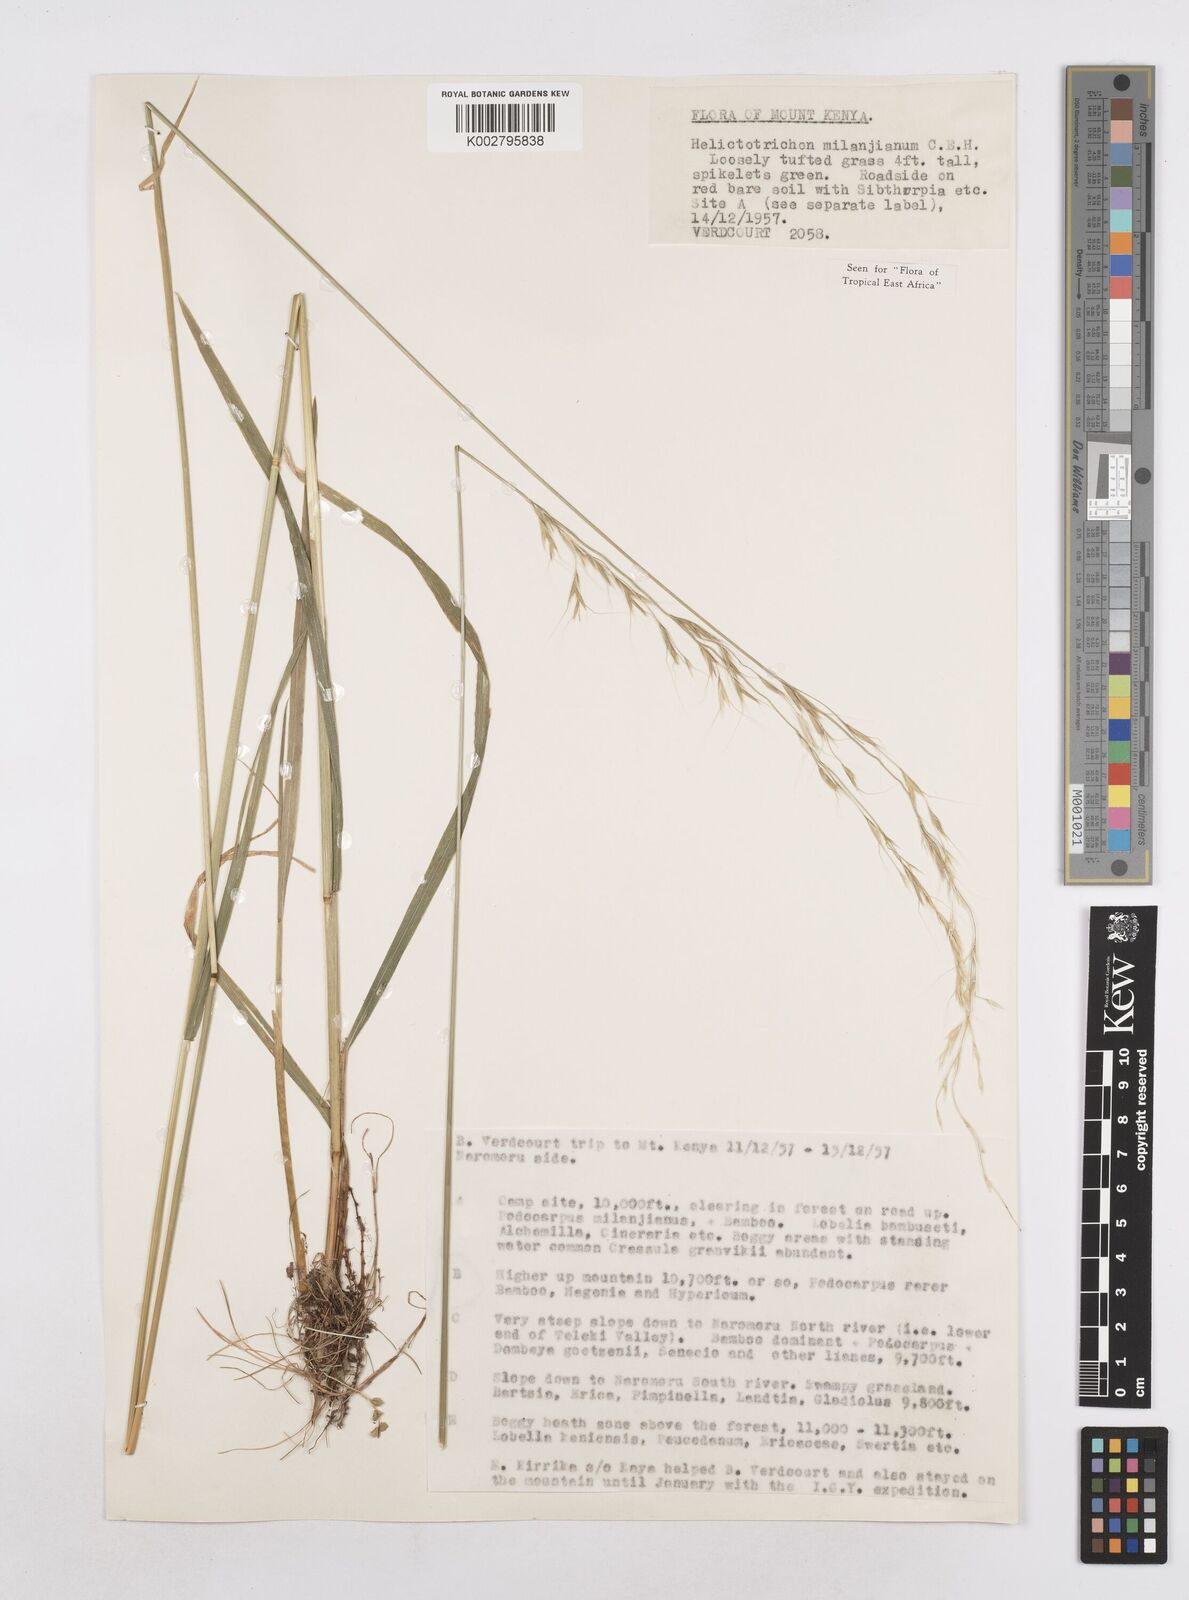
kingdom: Plantae
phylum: Tracheophyta
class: Liliopsida
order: Poales
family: Poaceae
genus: Trisetopsis
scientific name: Trisetopsis milanjiana
